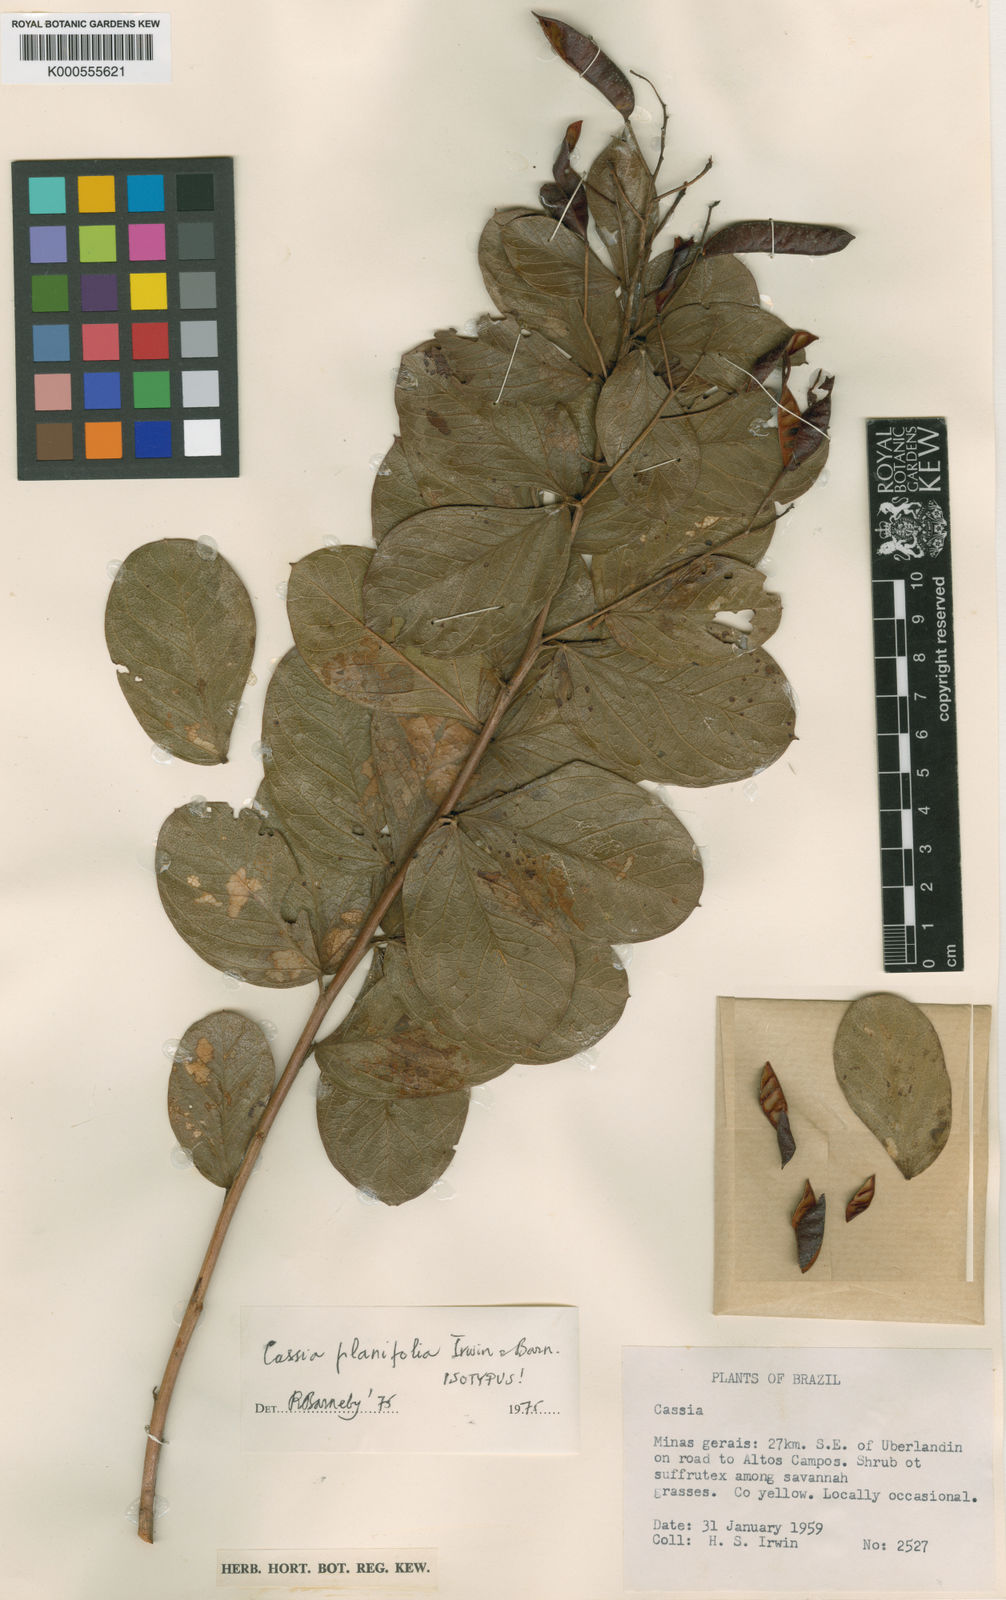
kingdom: Plantae
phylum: Tracheophyta
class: Magnoliopsida
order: Fabales
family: Fabaceae
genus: Chamaecrista
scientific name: Chamaecrista planifolia
